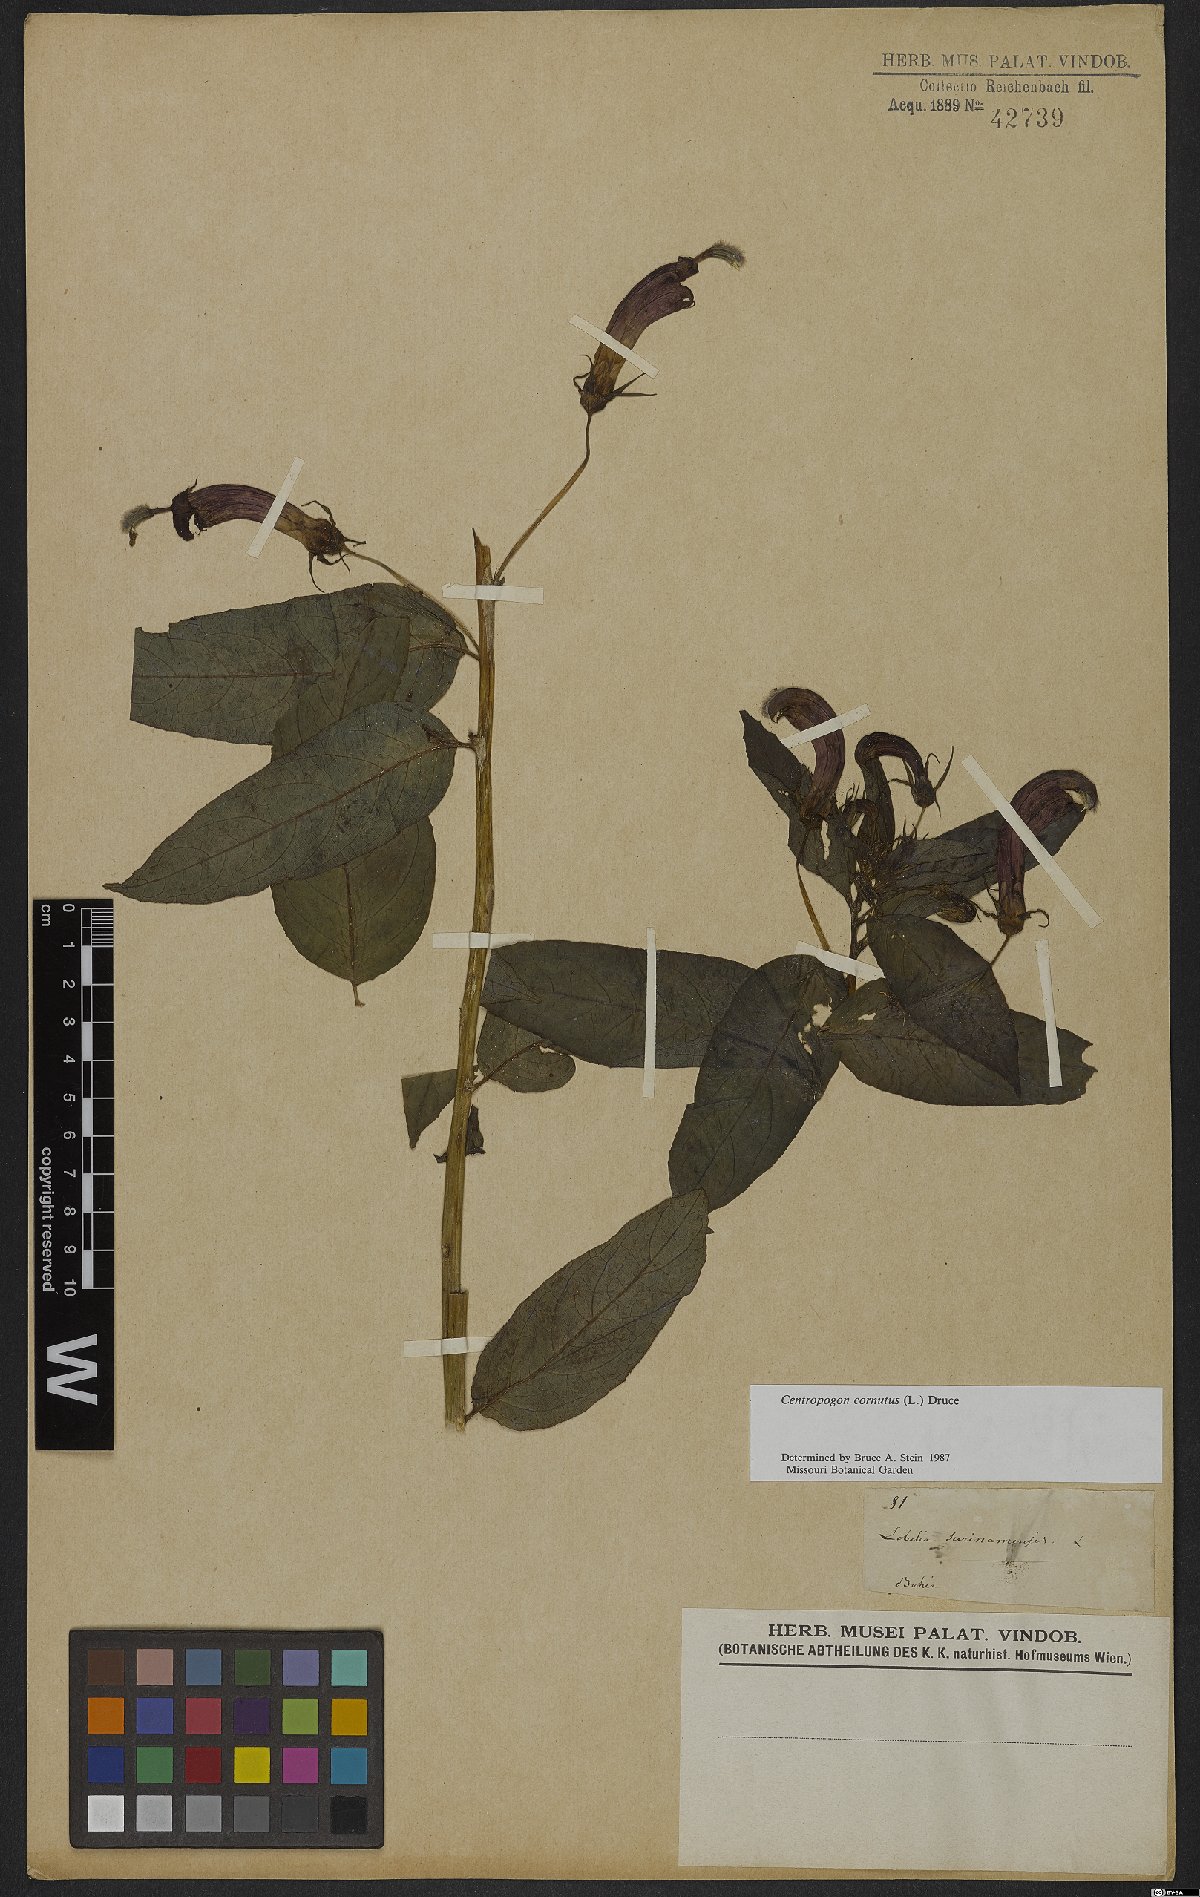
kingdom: Plantae
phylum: Tracheophyta
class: Magnoliopsida
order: Asterales
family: Campanulaceae
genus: Centropogon
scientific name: Centropogon cornutus
